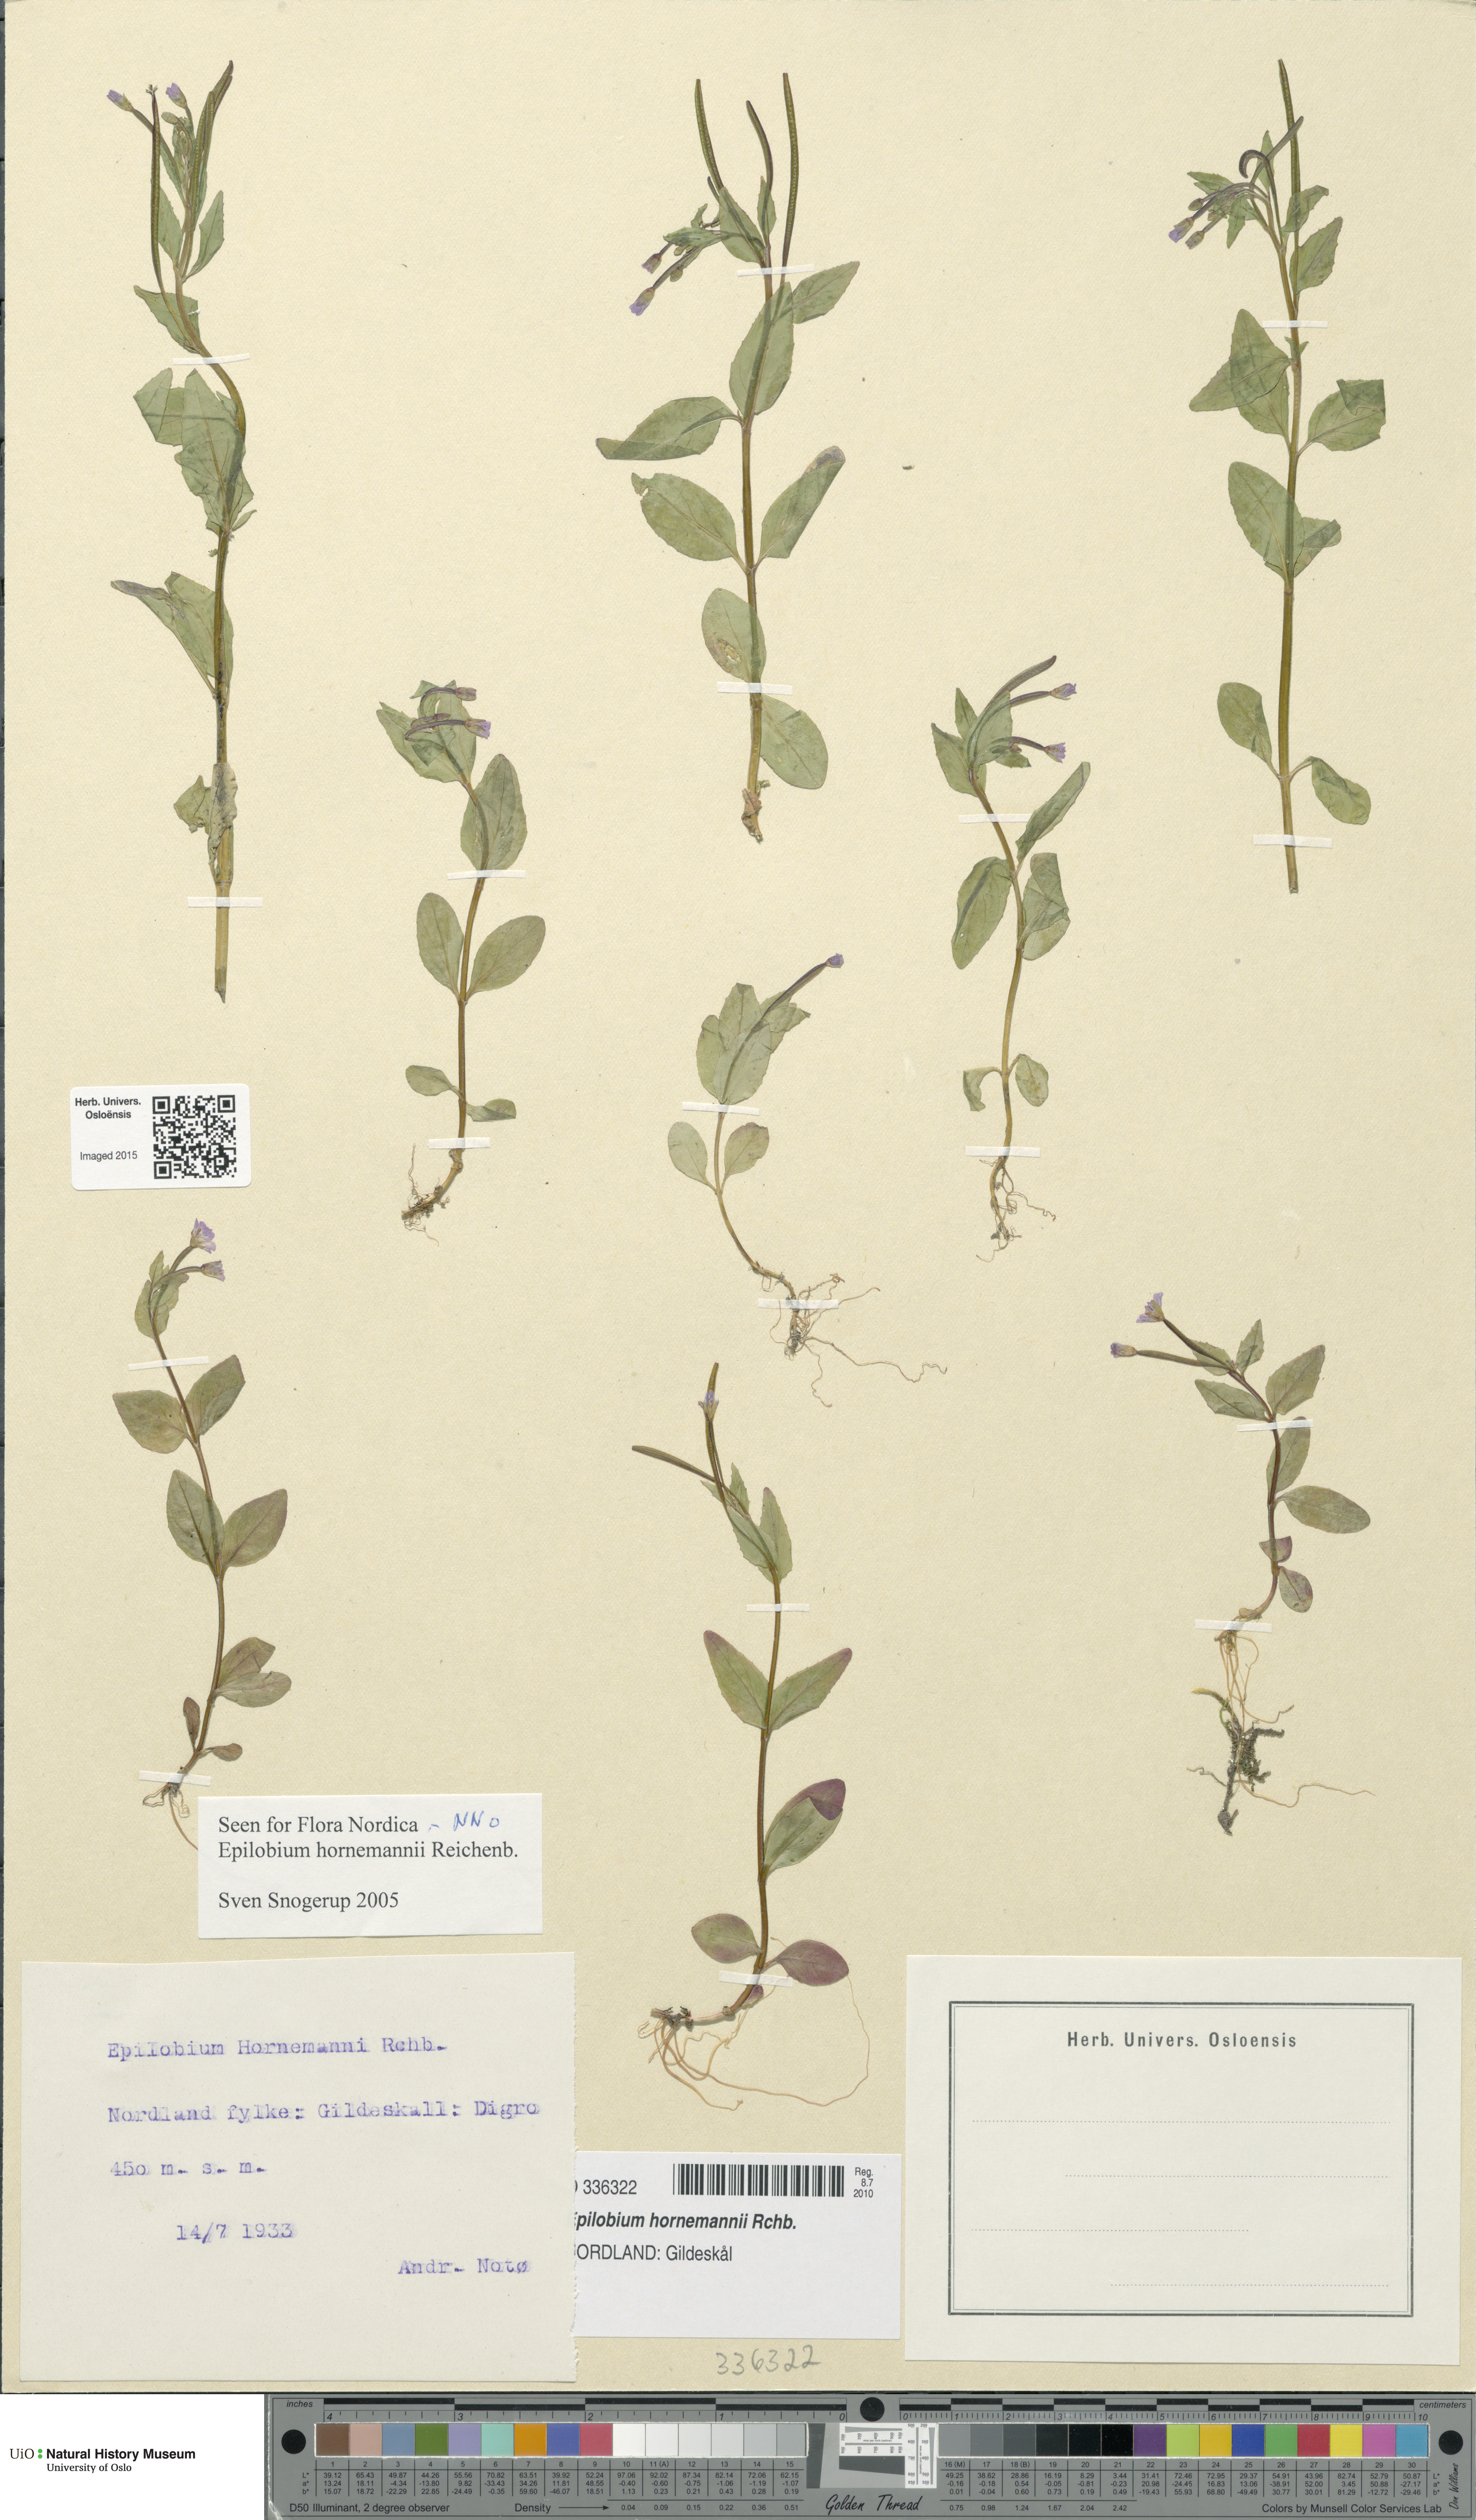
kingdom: Plantae
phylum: Tracheophyta
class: Magnoliopsida
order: Myrtales
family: Onagraceae
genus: Epilobium
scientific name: Epilobium hornemannii
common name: Hornemann's willowherb
